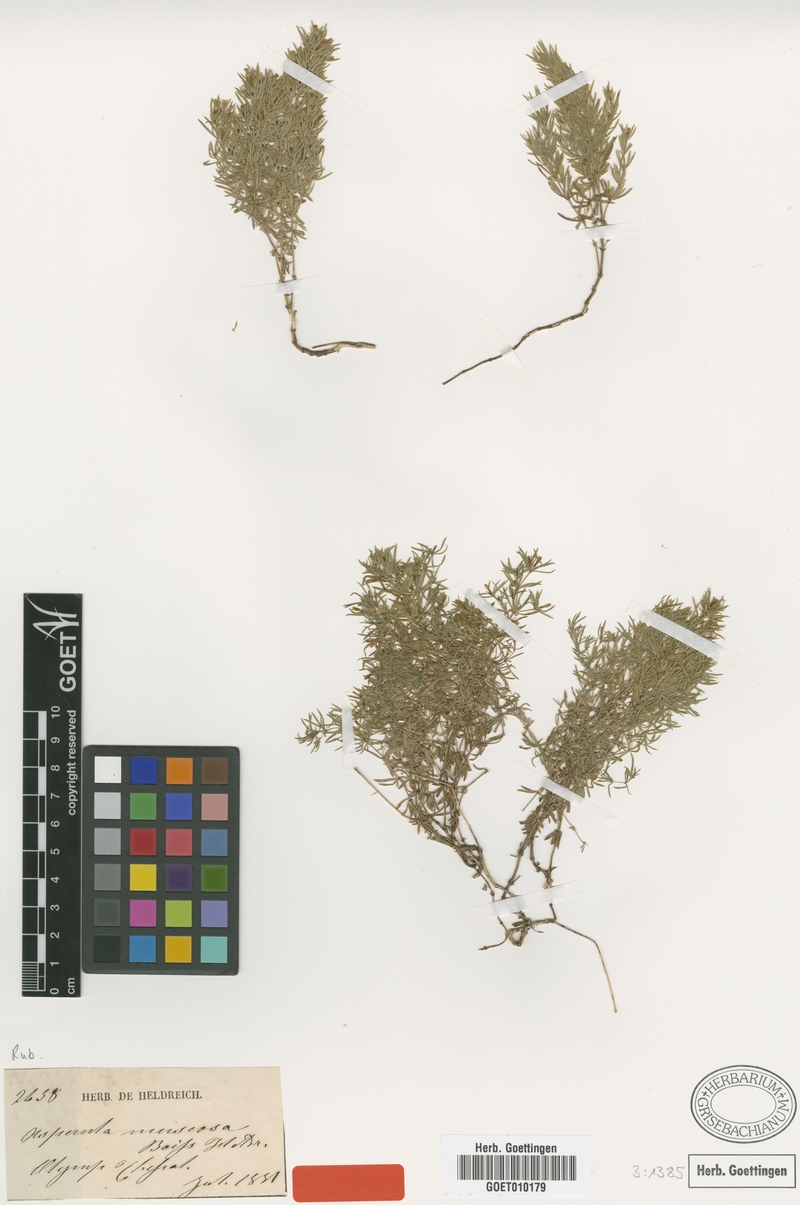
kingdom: Plantae
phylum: Tracheophyta
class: Magnoliopsida
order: Gentianales
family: Rubiaceae
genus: Thliphthisa
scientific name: Thliphthisa muscosa
